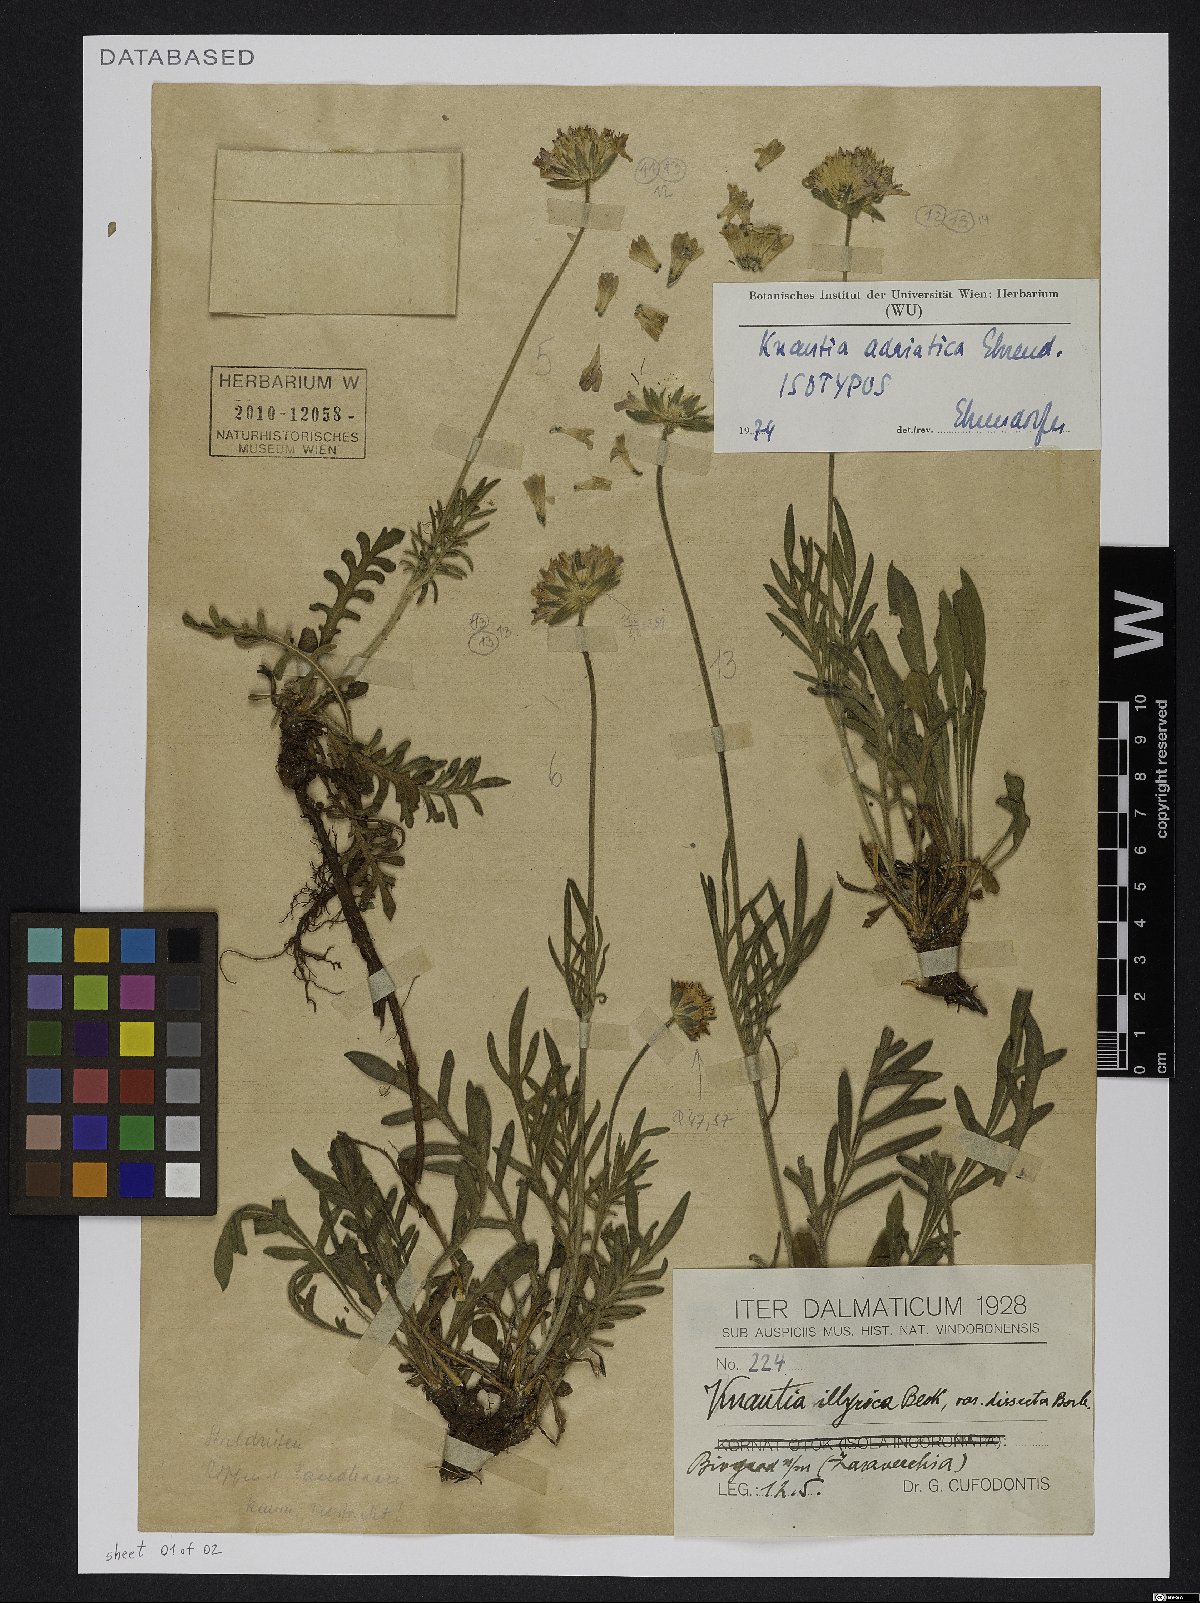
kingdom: Plantae
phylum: Tracheophyta
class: Magnoliopsida
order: Dipsacales
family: Caprifoliaceae
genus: Knautia
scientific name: Knautia adriatica
